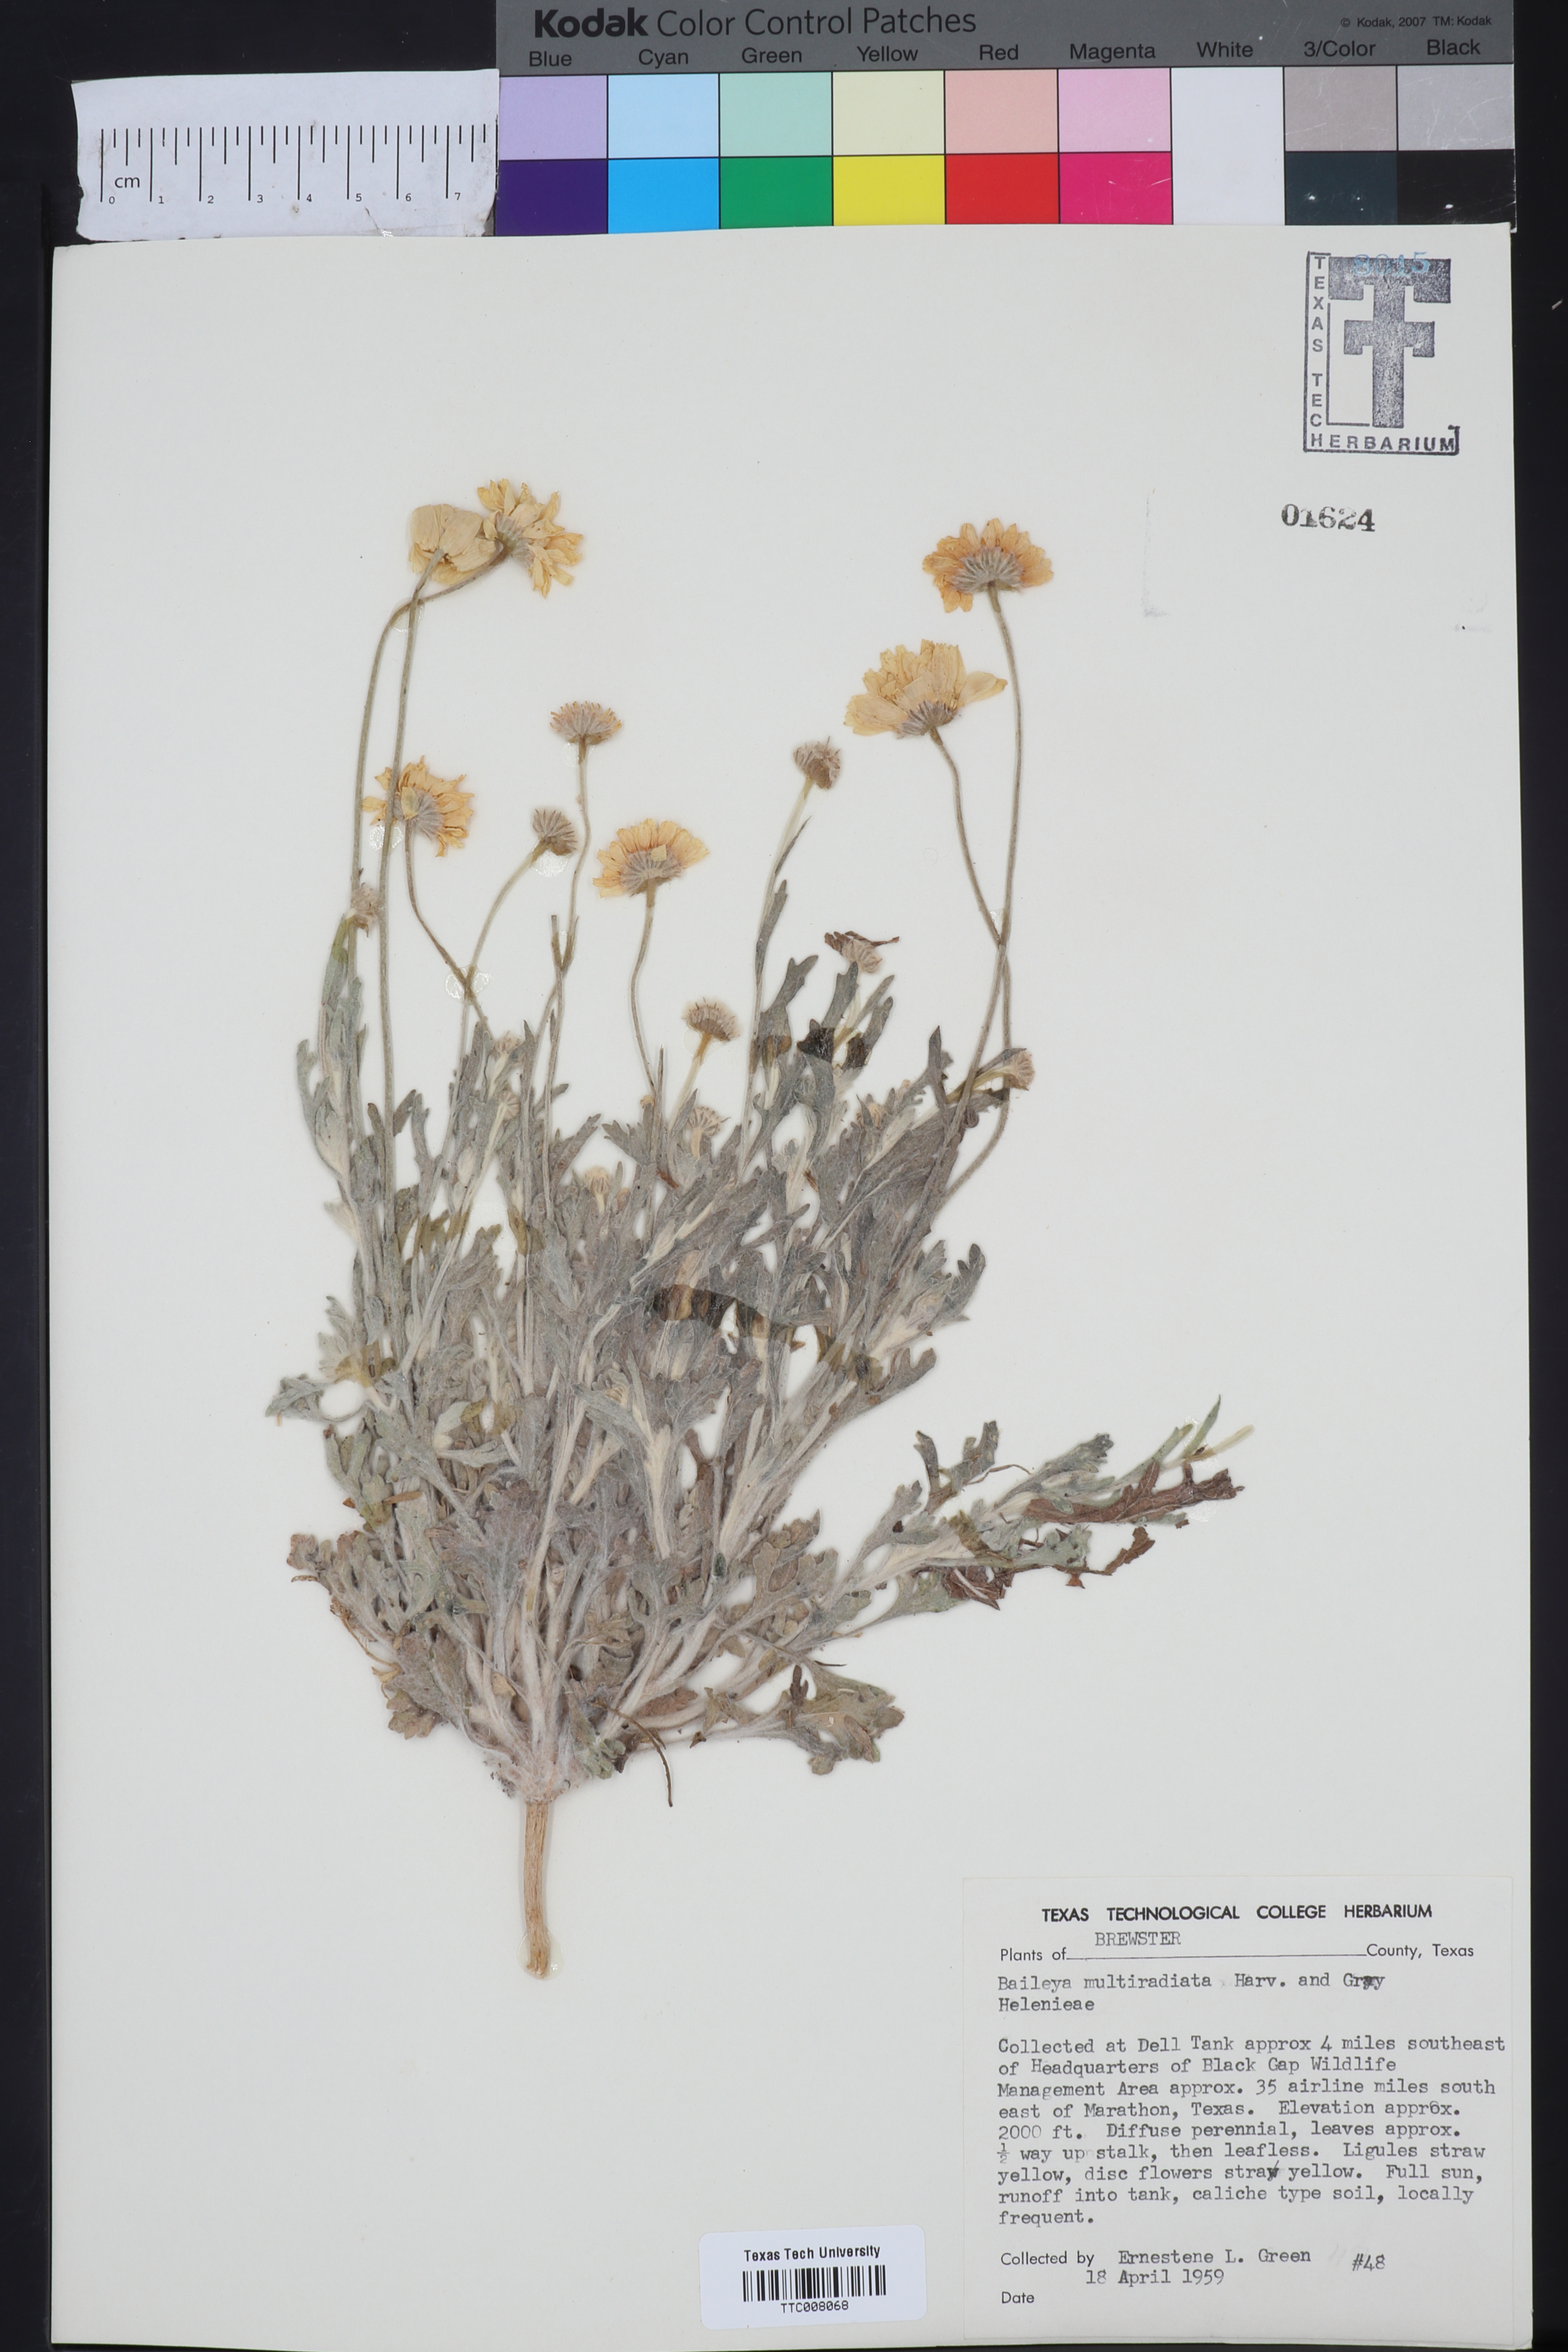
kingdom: Plantae
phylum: Tracheophyta
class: Magnoliopsida
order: Asterales
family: Asteraceae
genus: Baileya
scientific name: Baileya multiradiata
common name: Desert-marigold
